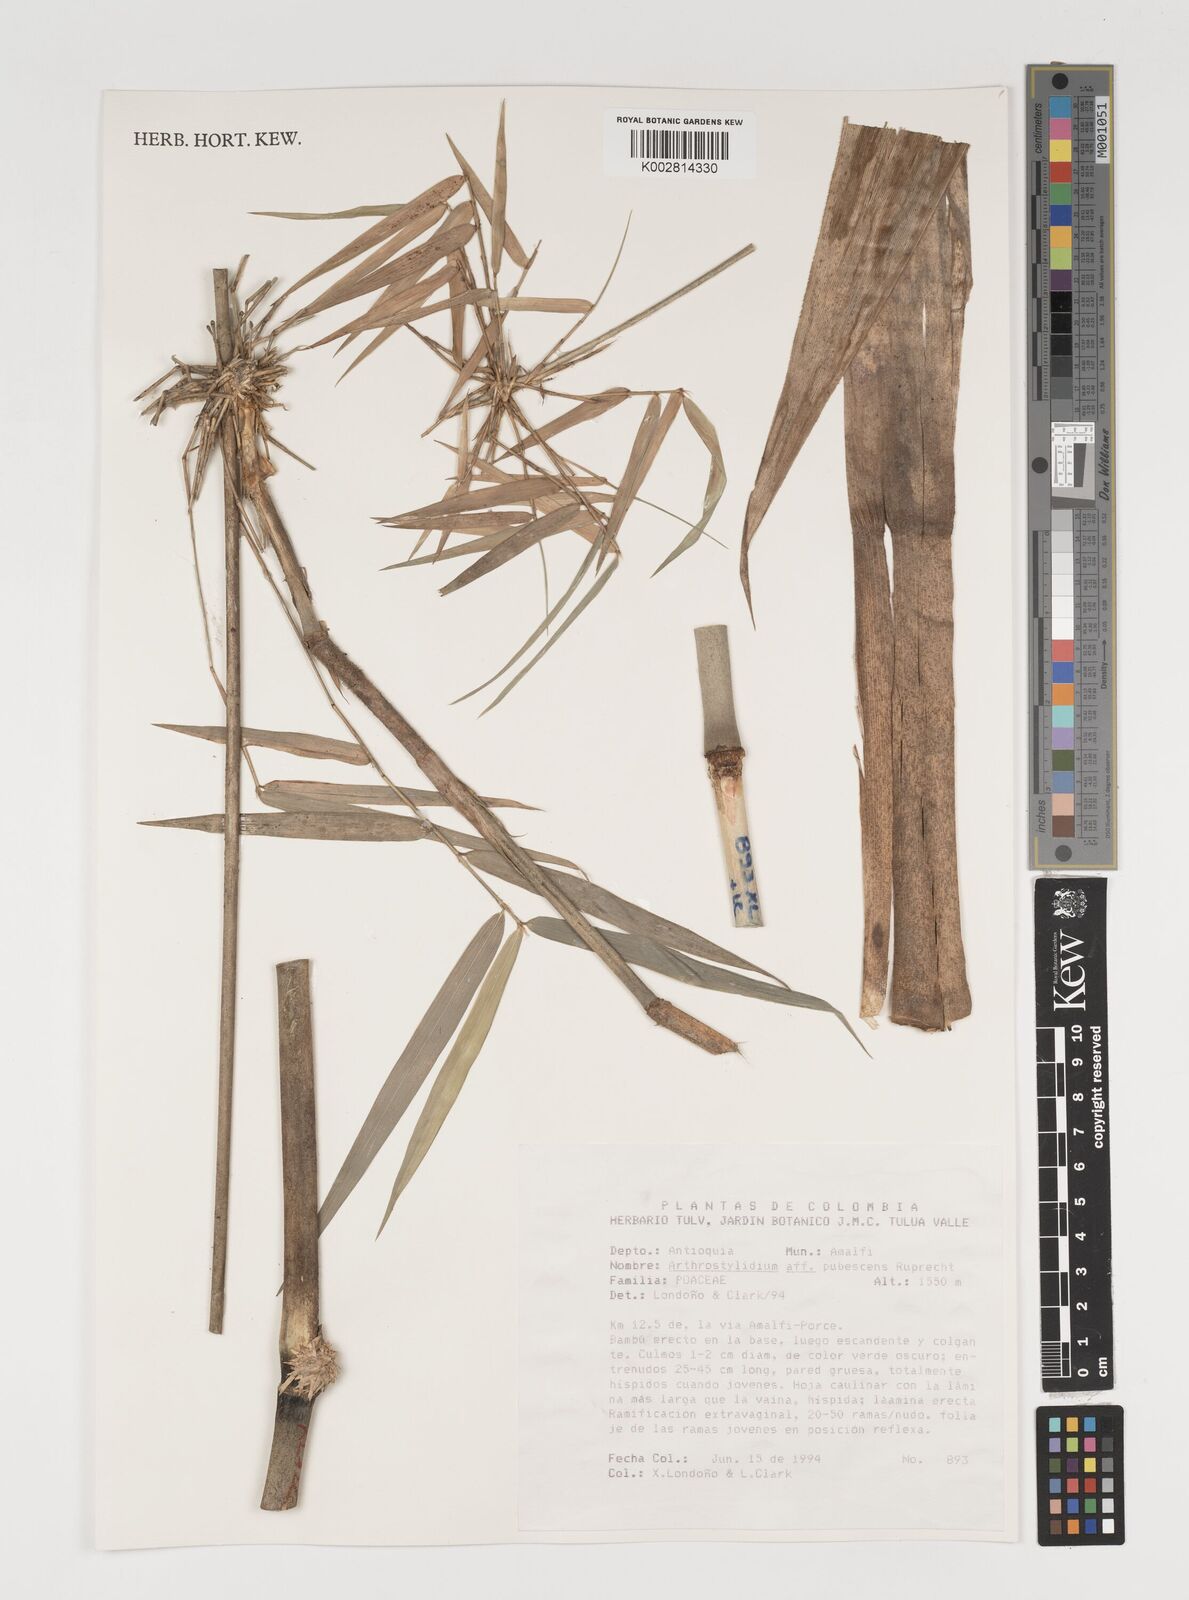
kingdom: Plantae
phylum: Tracheophyta
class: Liliopsida
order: Poales
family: Poaceae
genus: Arthrostylidium
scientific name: Arthrostylidium
